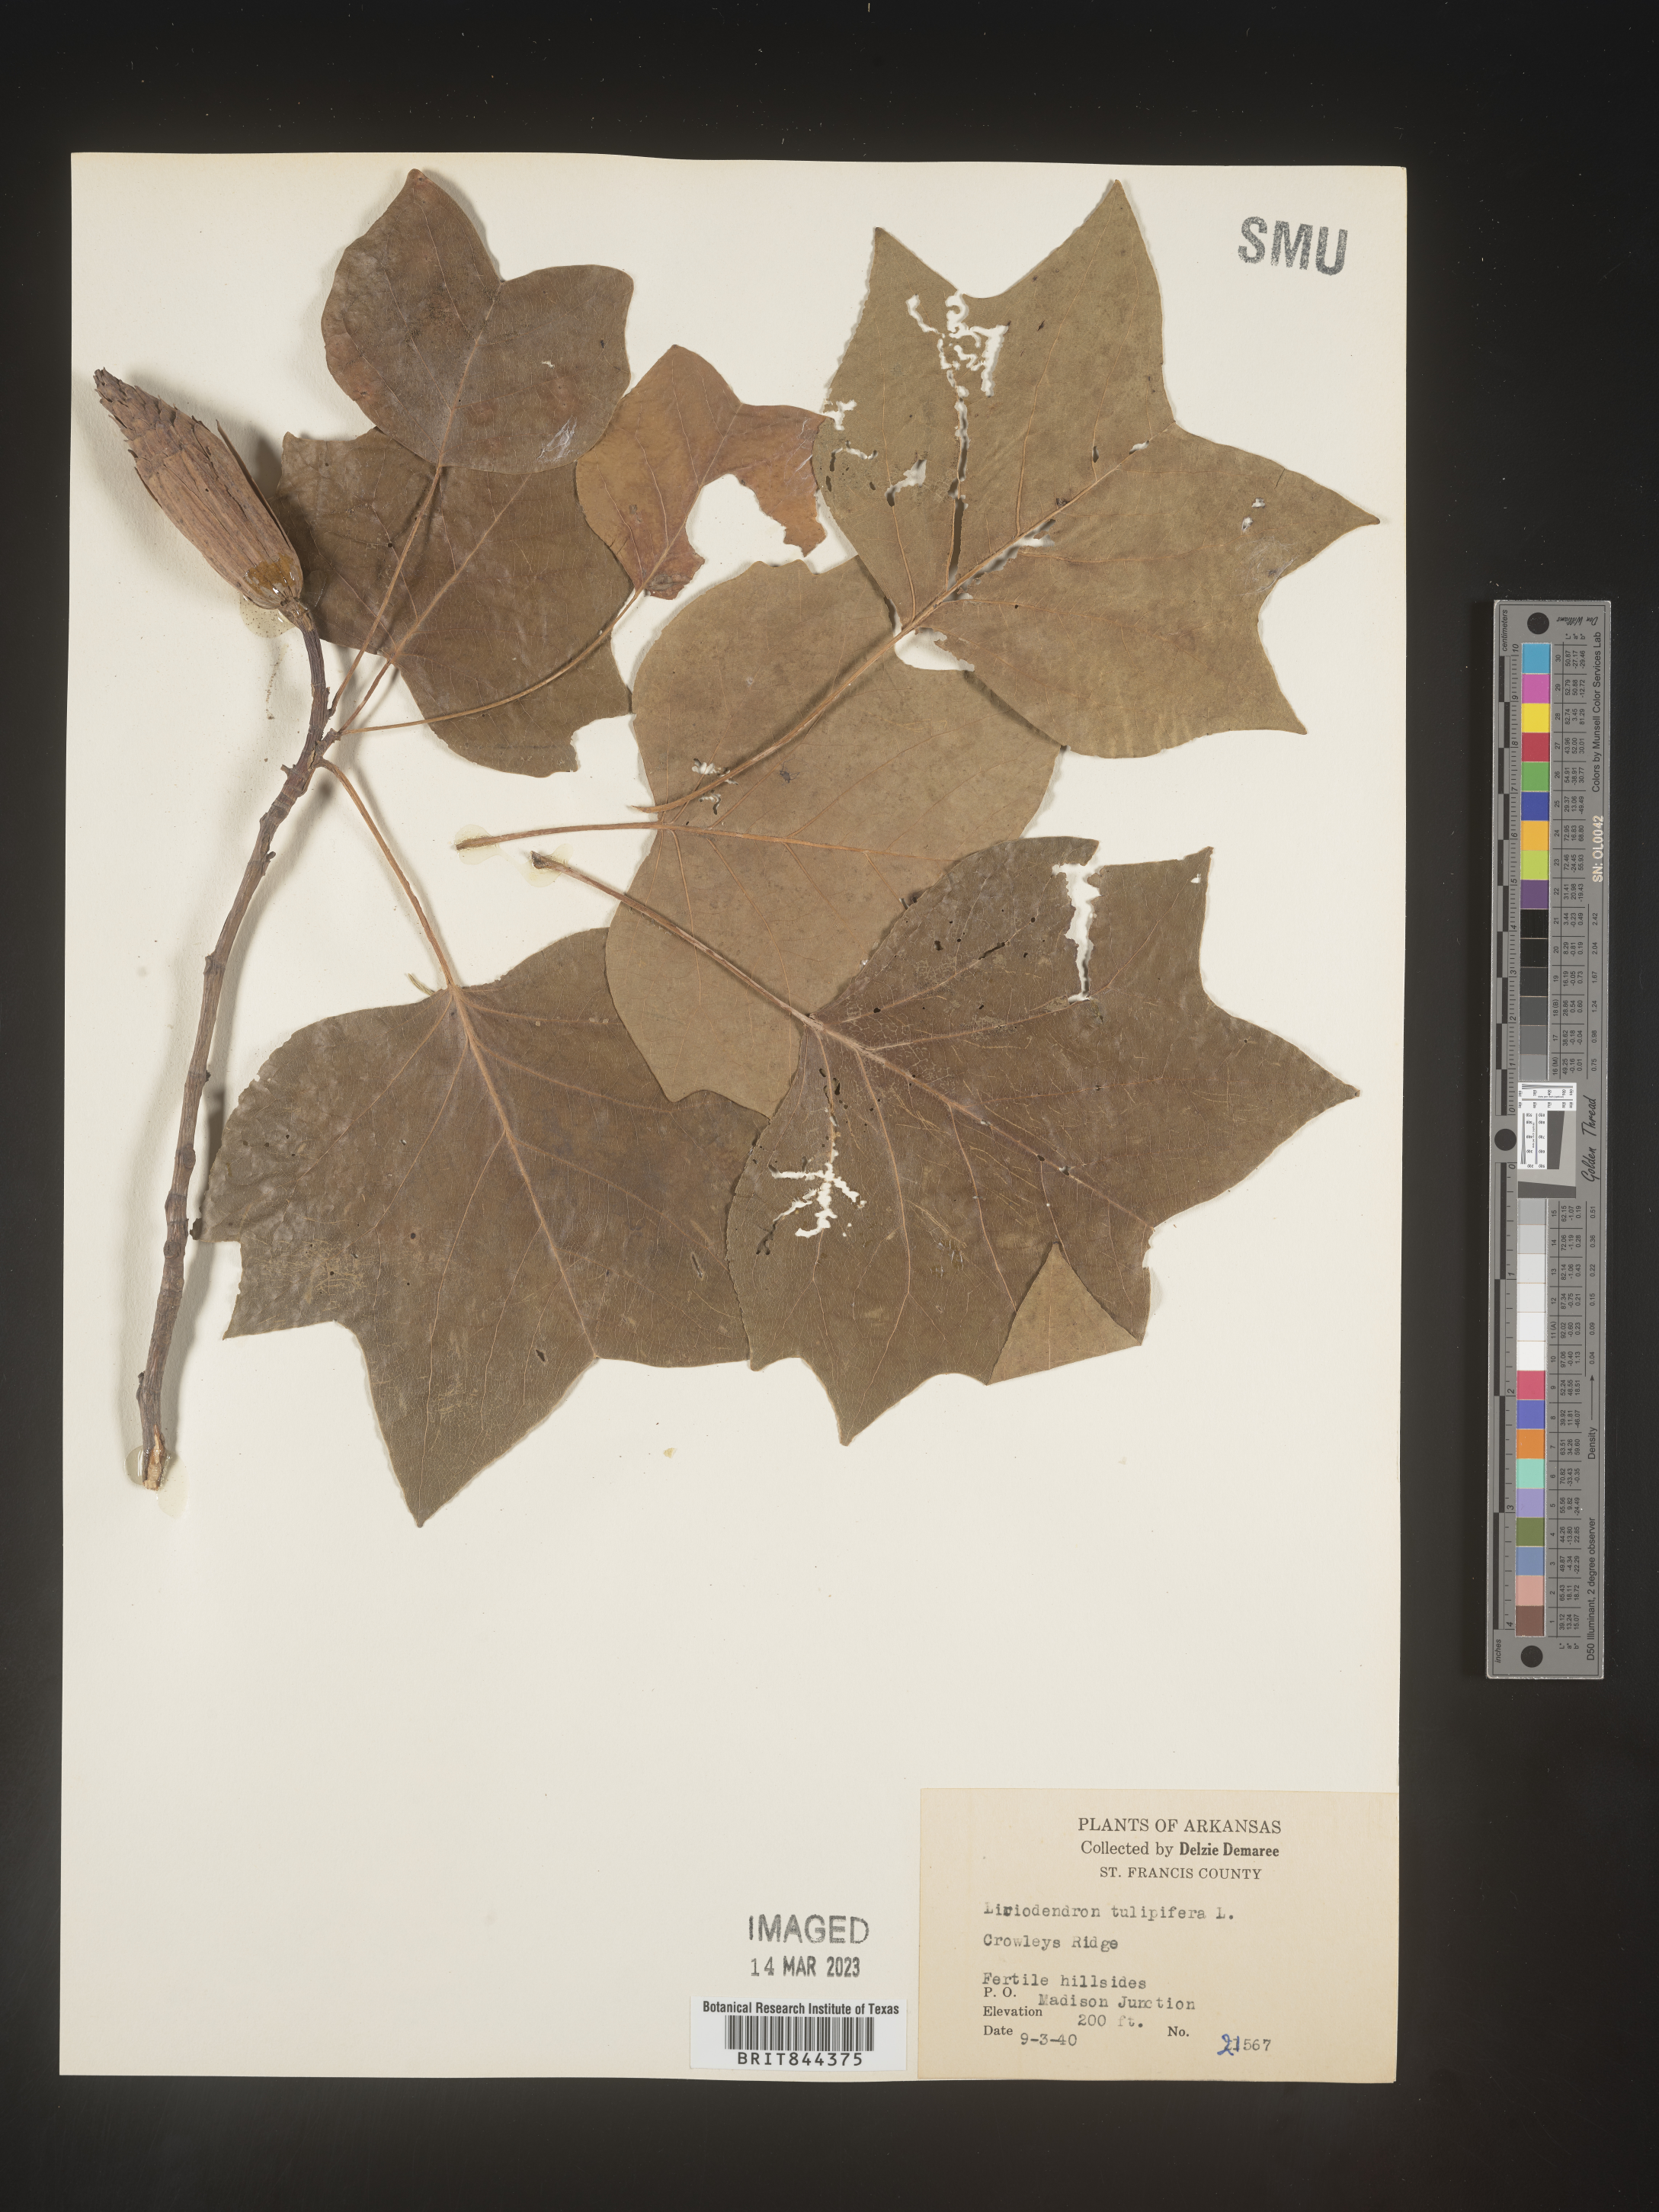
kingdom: Plantae
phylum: Tracheophyta
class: Magnoliopsida
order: Magnoliales
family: Magnoliaceae
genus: Liriodendron
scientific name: Liriodendron tulipifera
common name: Tulip tree
